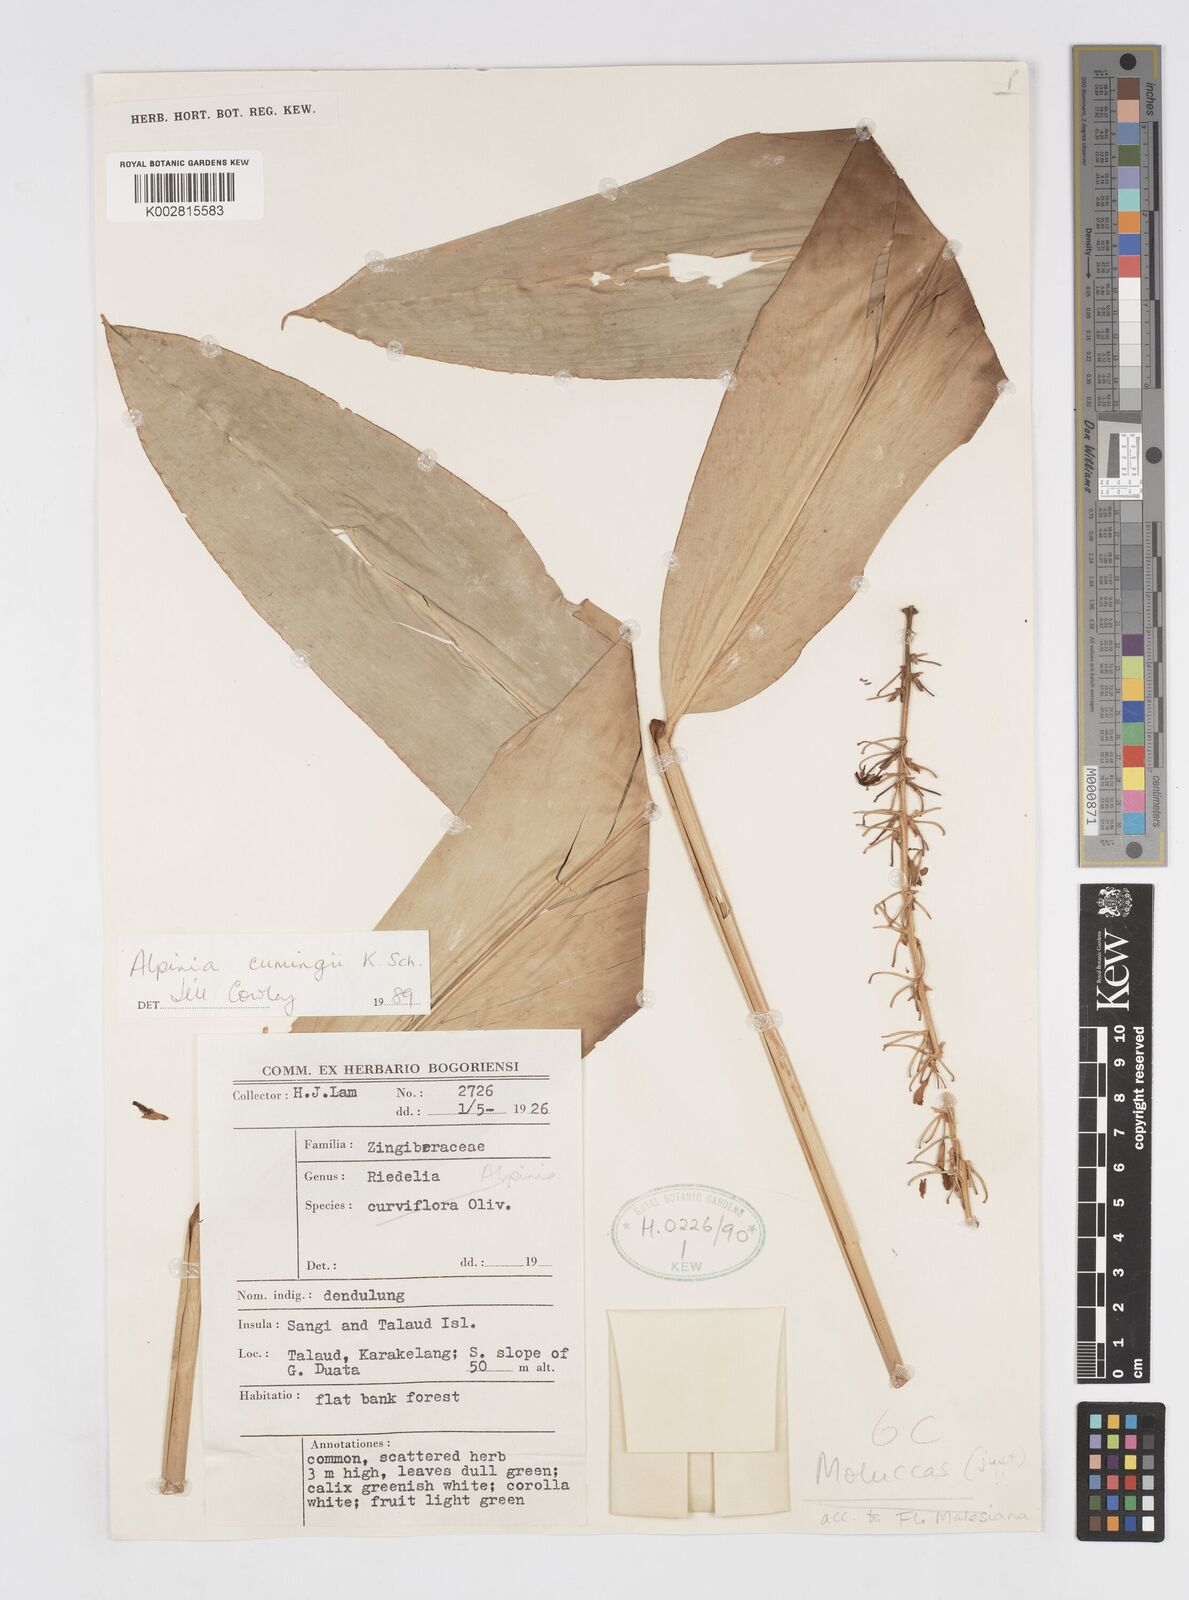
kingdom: Plantae
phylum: Tracheophyta
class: Liliopsida
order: Zingiberales
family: Zingiberaceae
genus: Alpinia
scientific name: Alpinia cumingii
